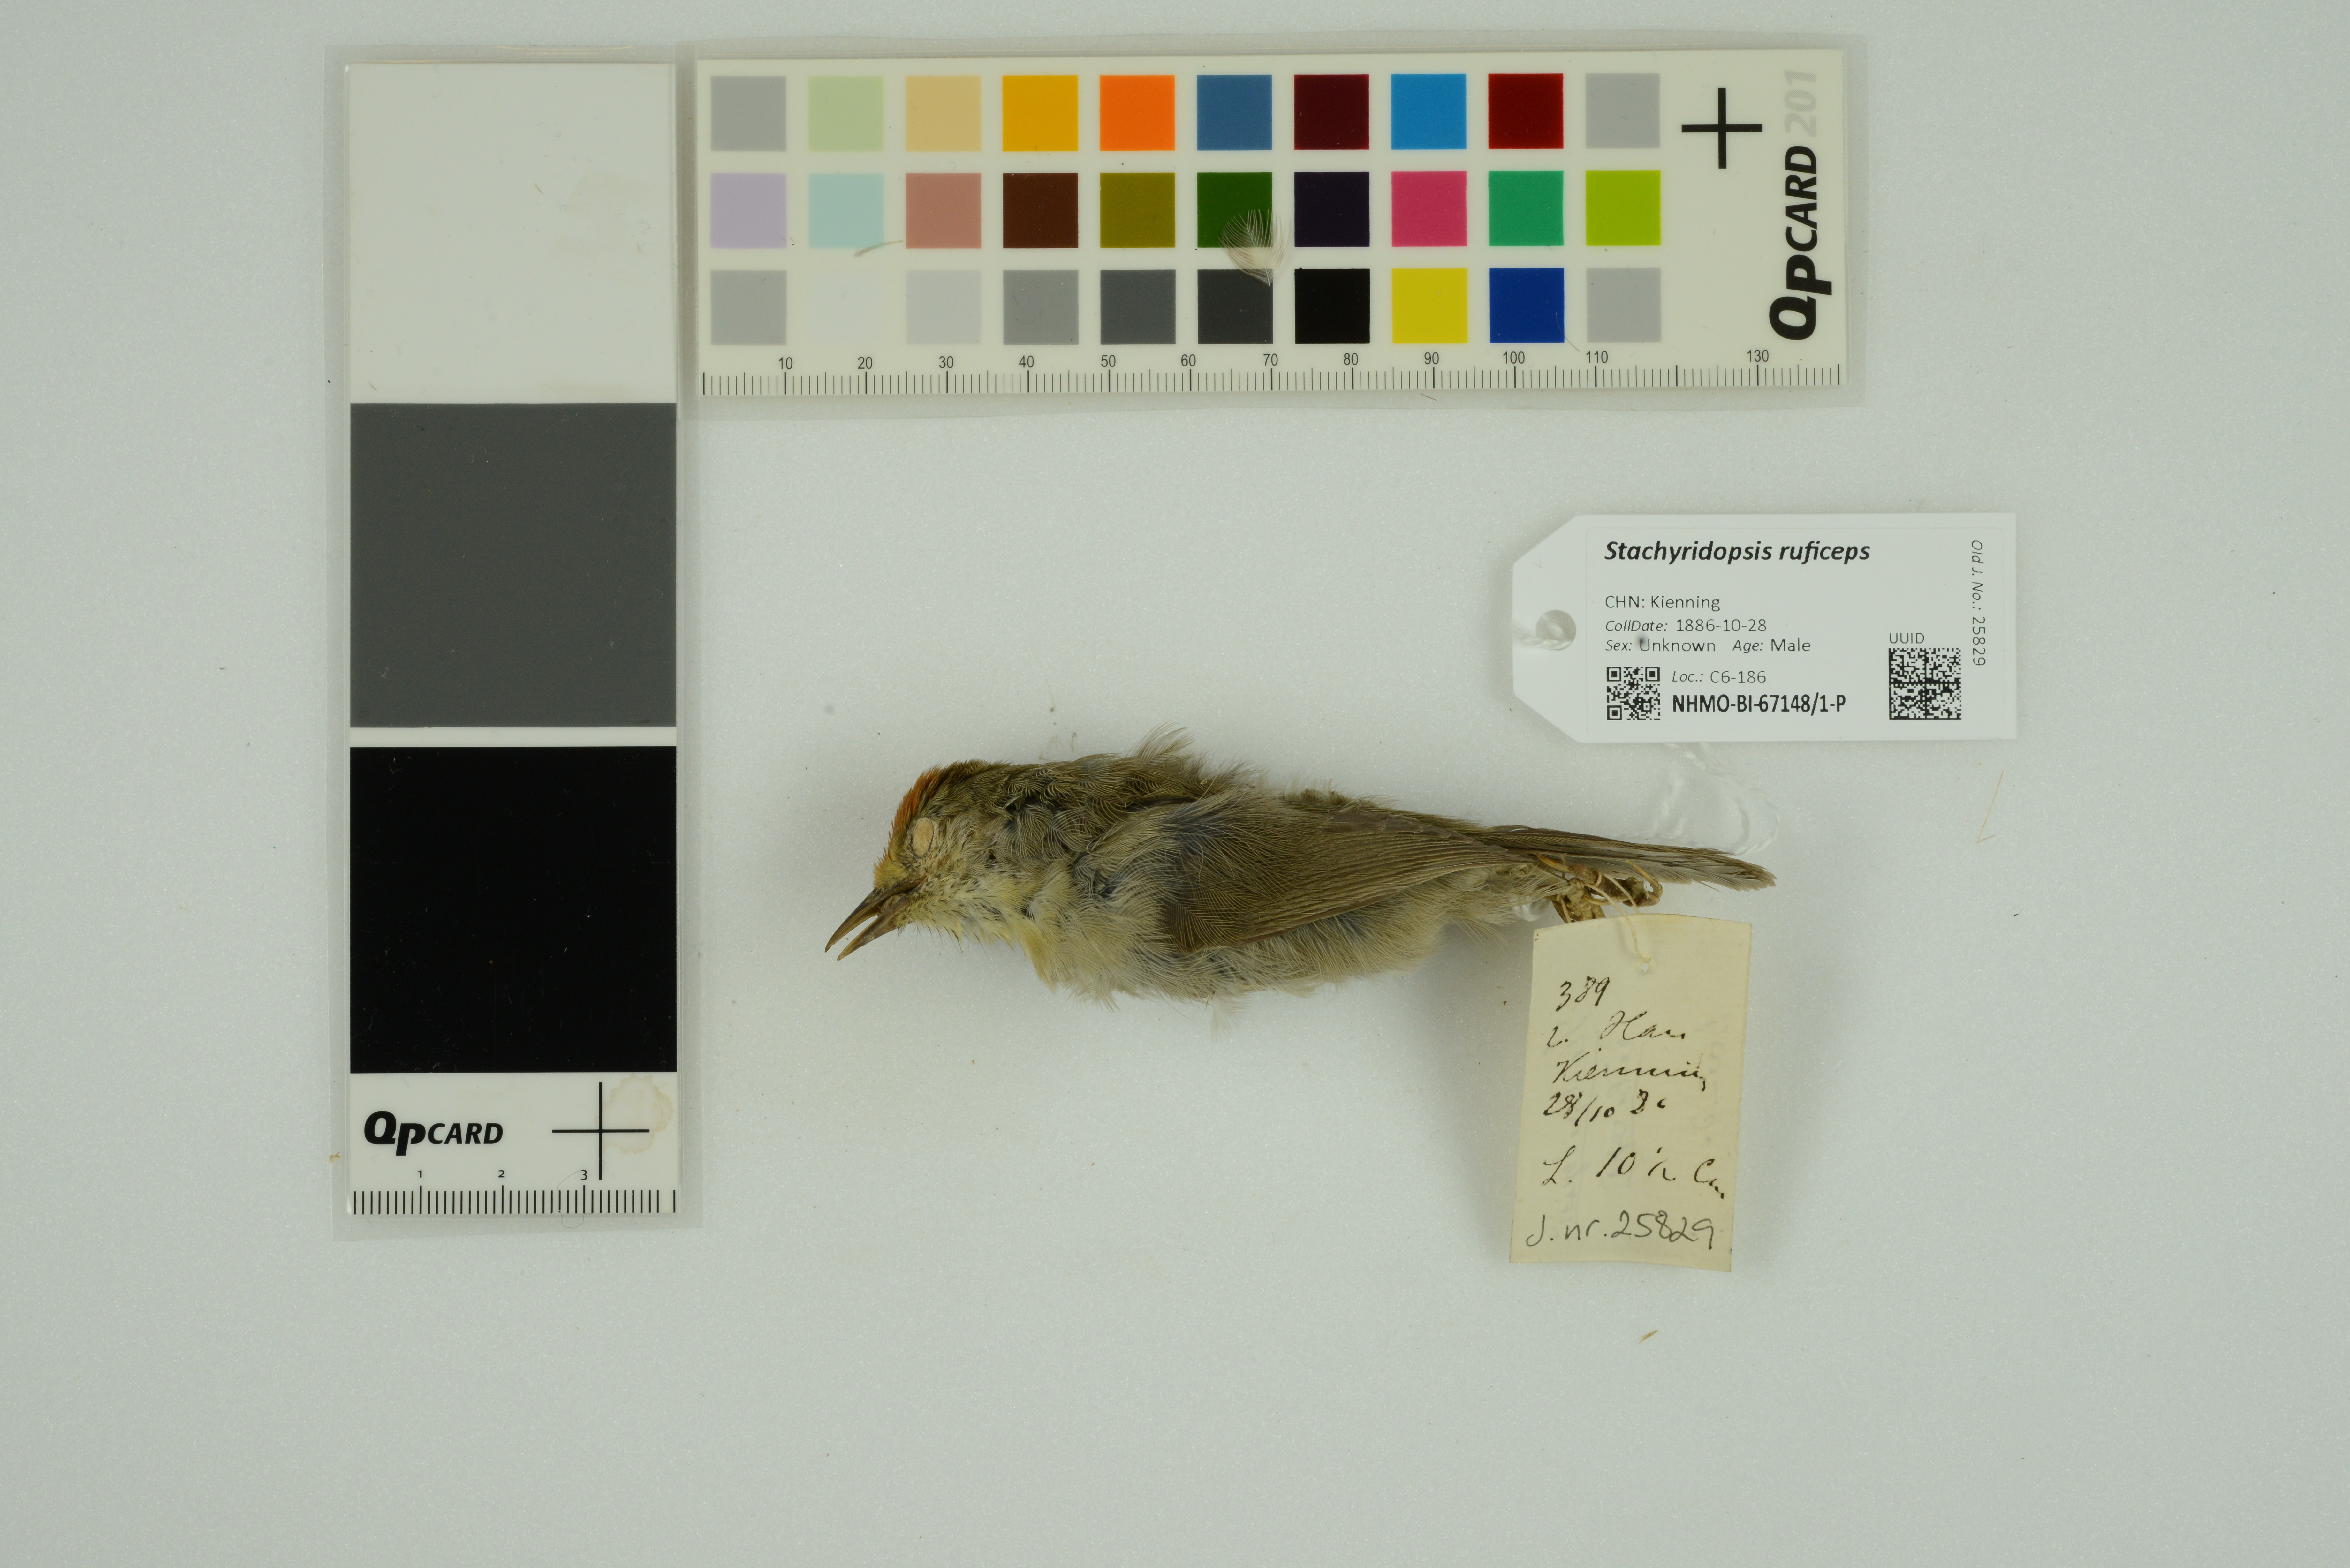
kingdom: Animalia
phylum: Chordata
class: Aves
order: Passeriformes
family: Timaliidae
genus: Stachyridopsis
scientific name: Stachyridopsis ruficeps
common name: Rufous-capped babbler
